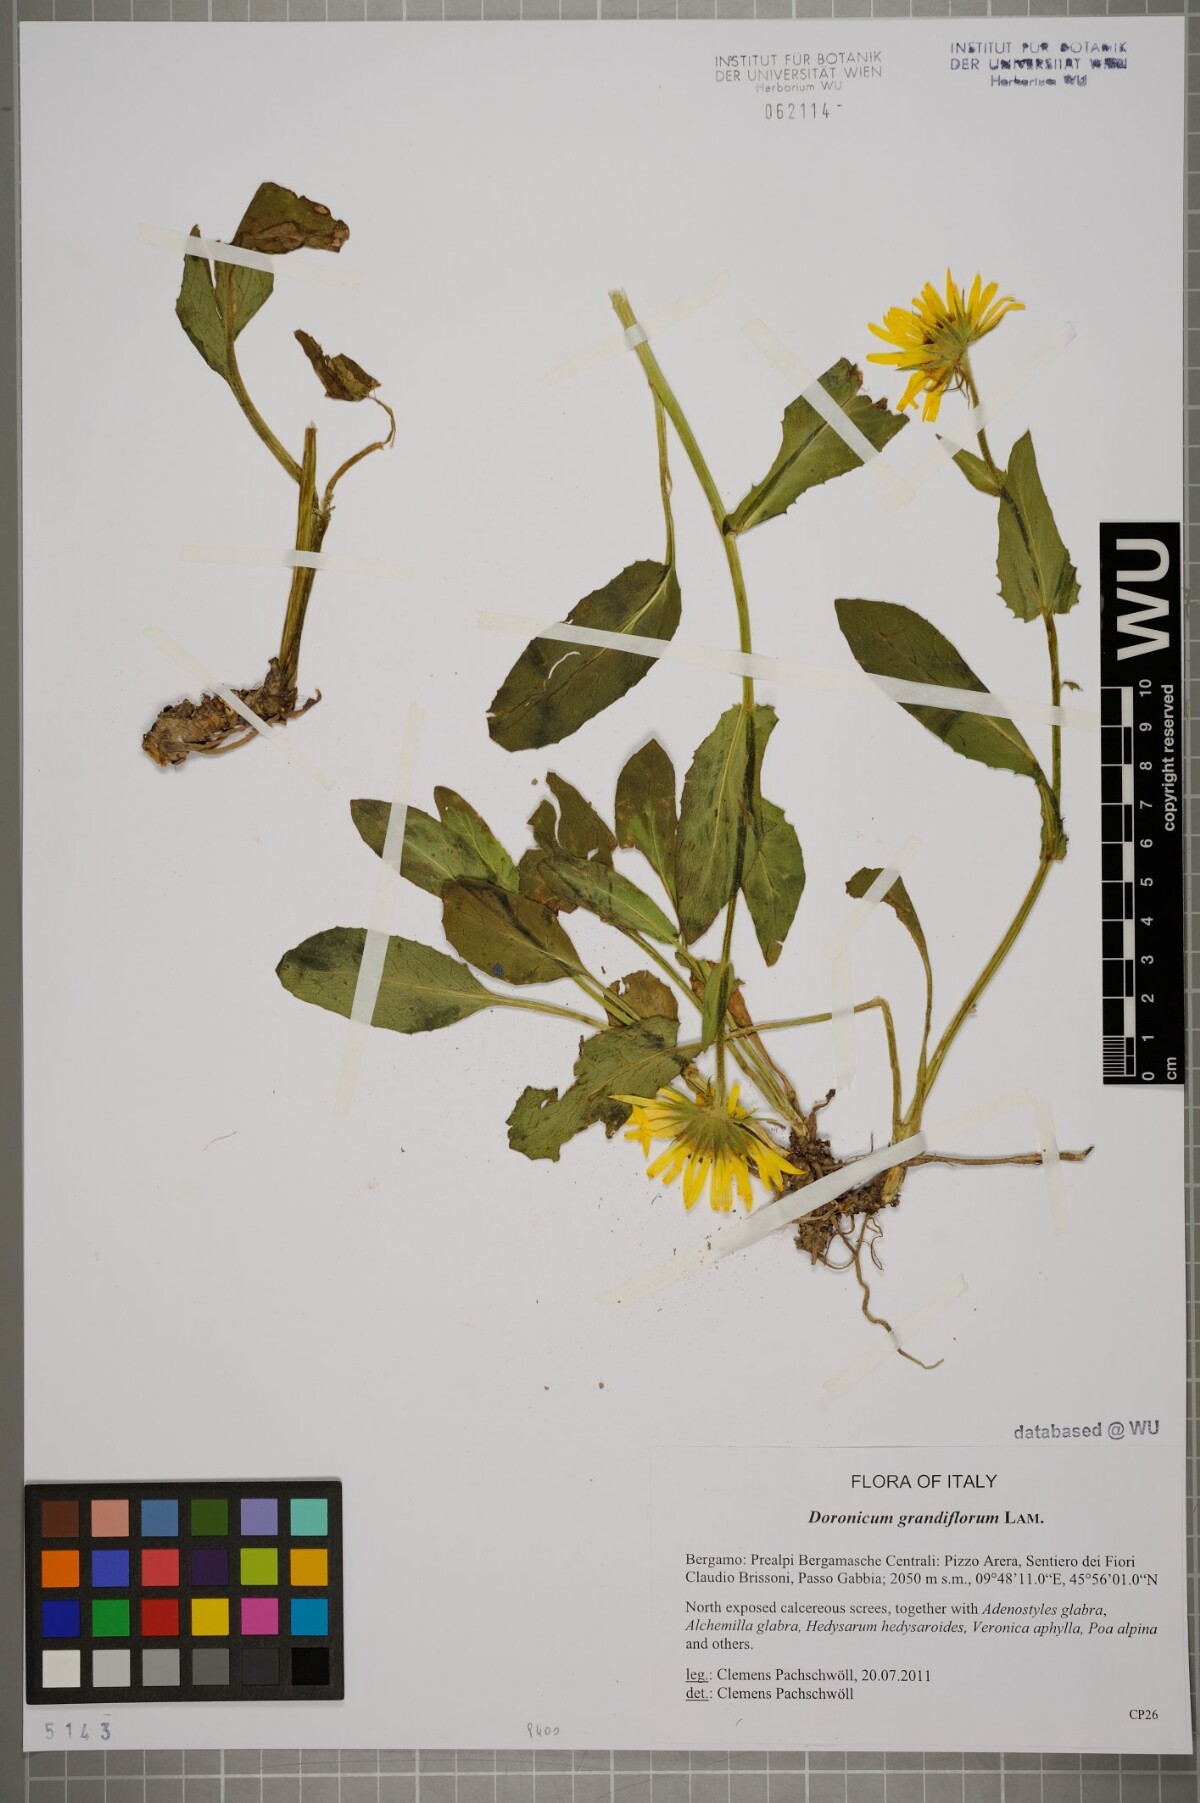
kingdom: Plantae
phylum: Tracheophyta
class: Magnoliopsida
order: Asterales
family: Asteraceae
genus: Doronicum
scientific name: Doronicum grandiflorum
